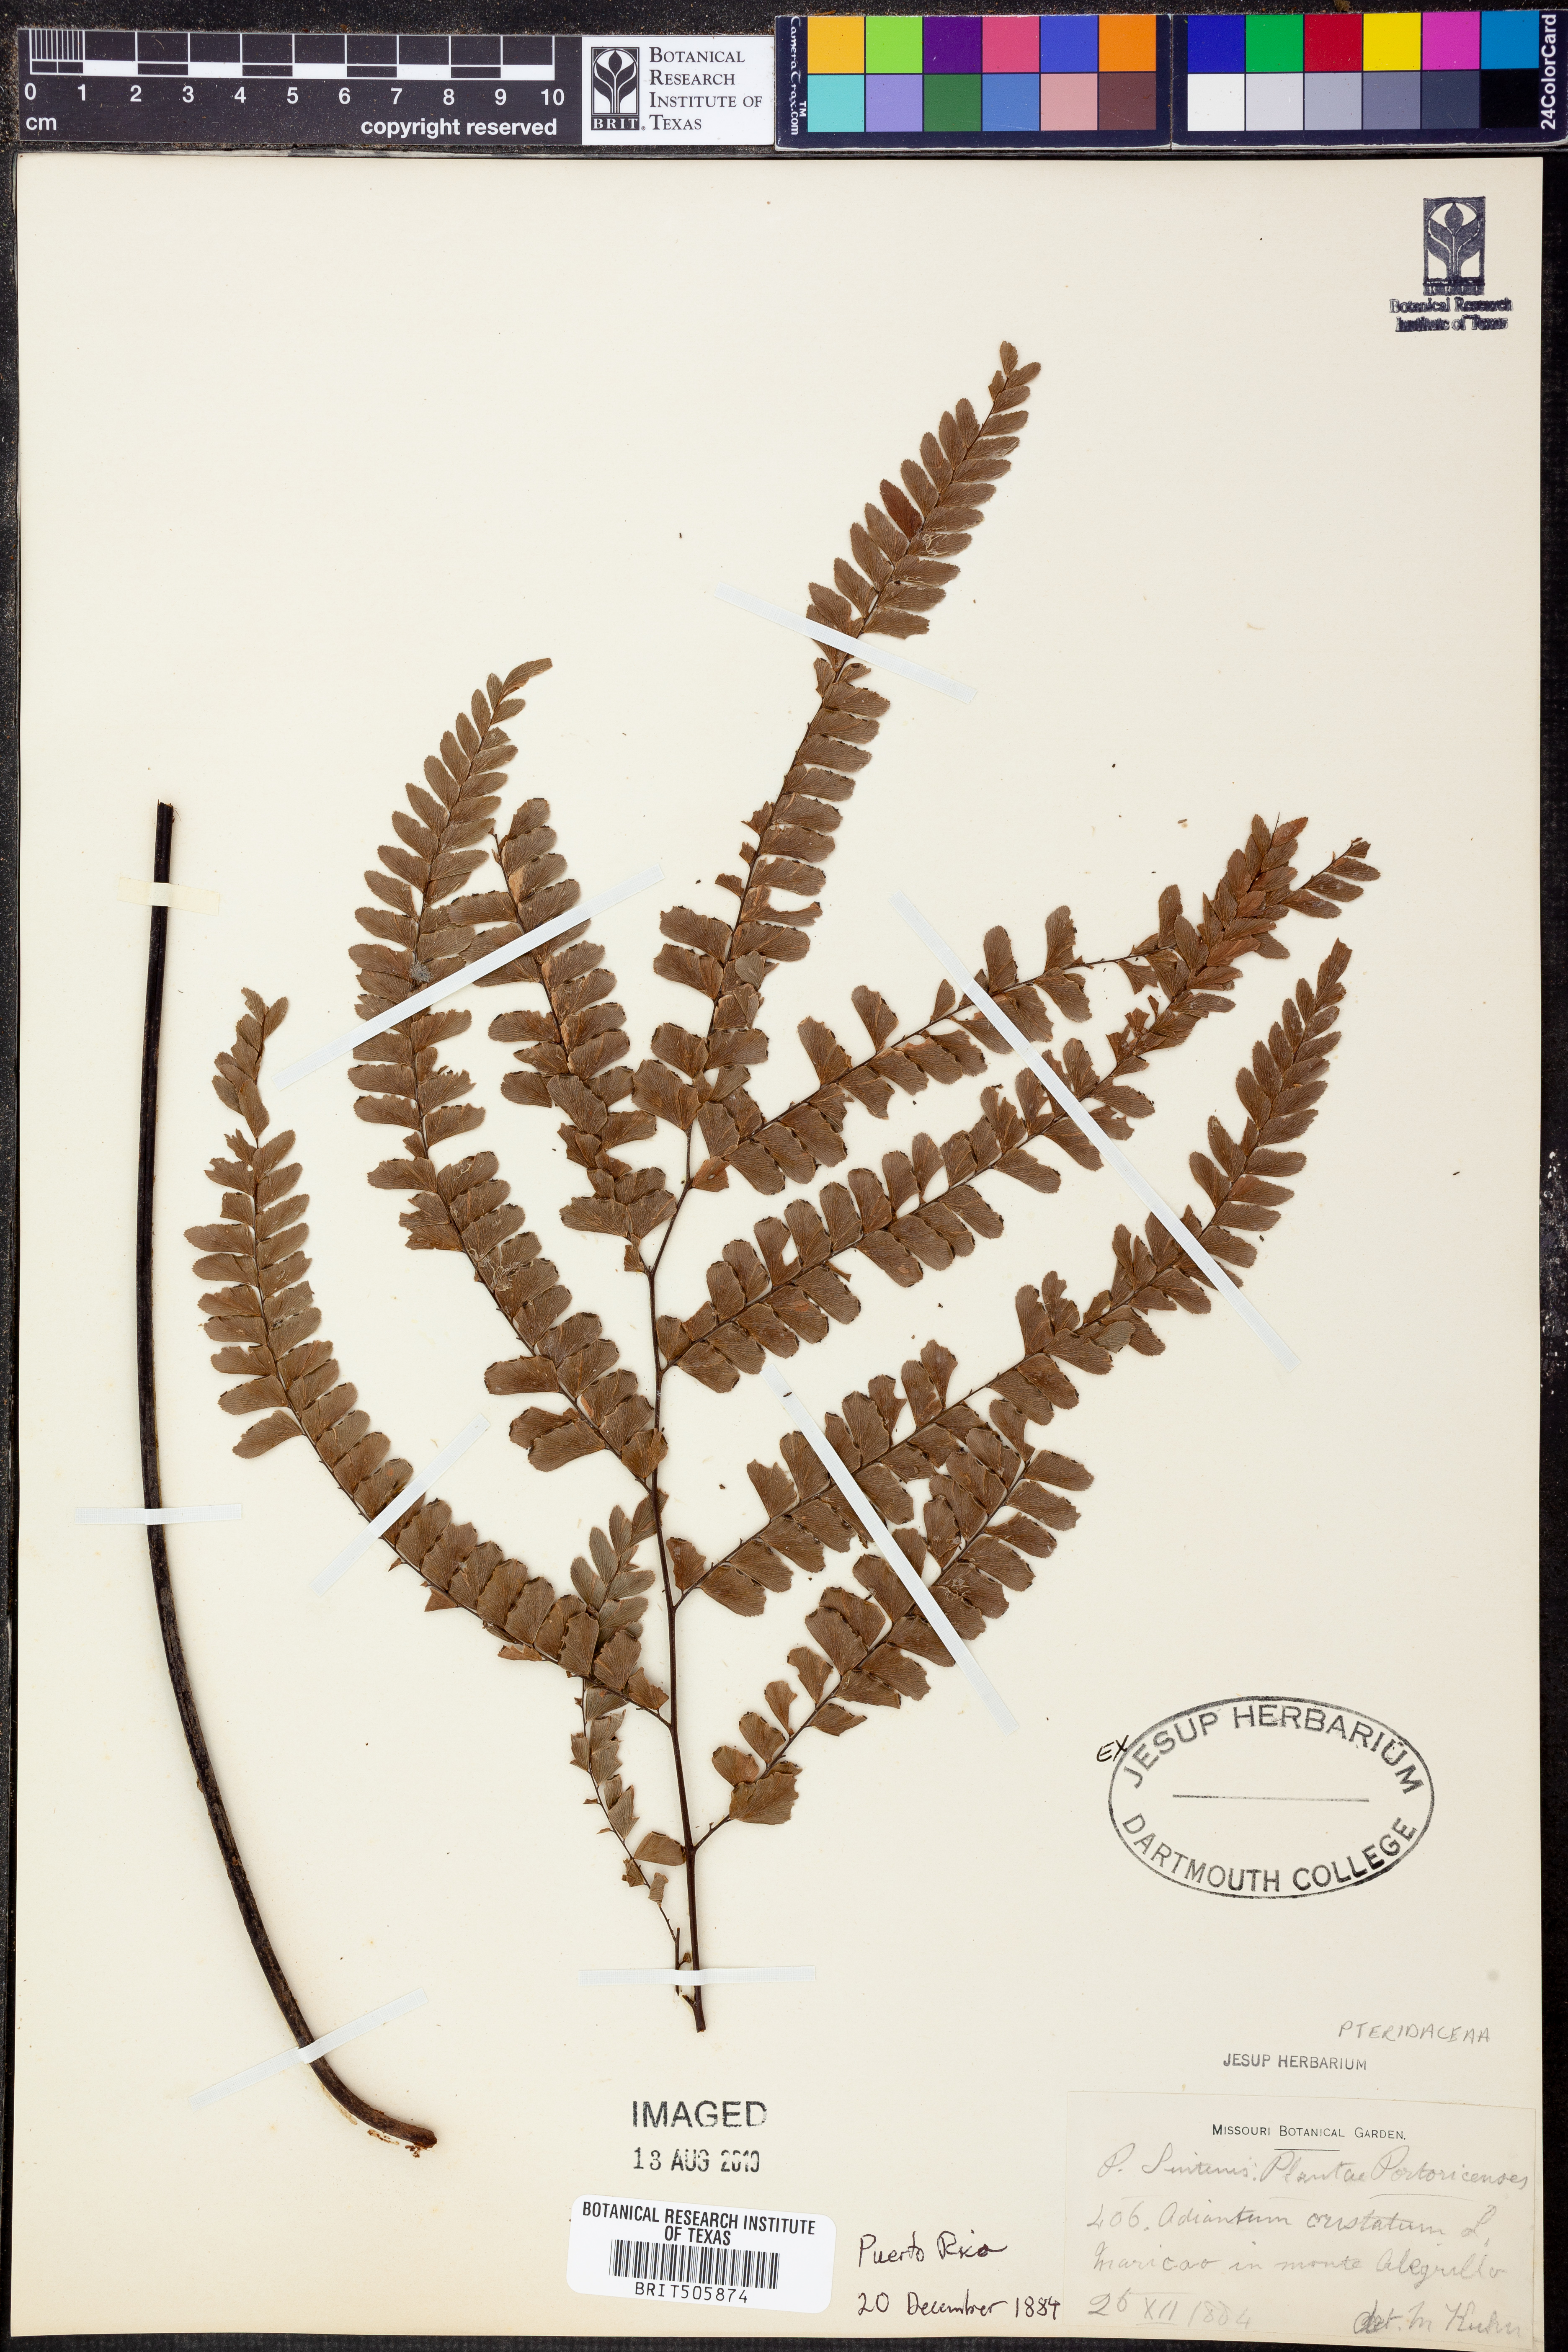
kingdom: Plantae
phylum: Tracheophyta
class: Polypodiopsida
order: Polypodiales
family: Pteridaceae
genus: Adiantum
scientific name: Adiantum pyramidale
